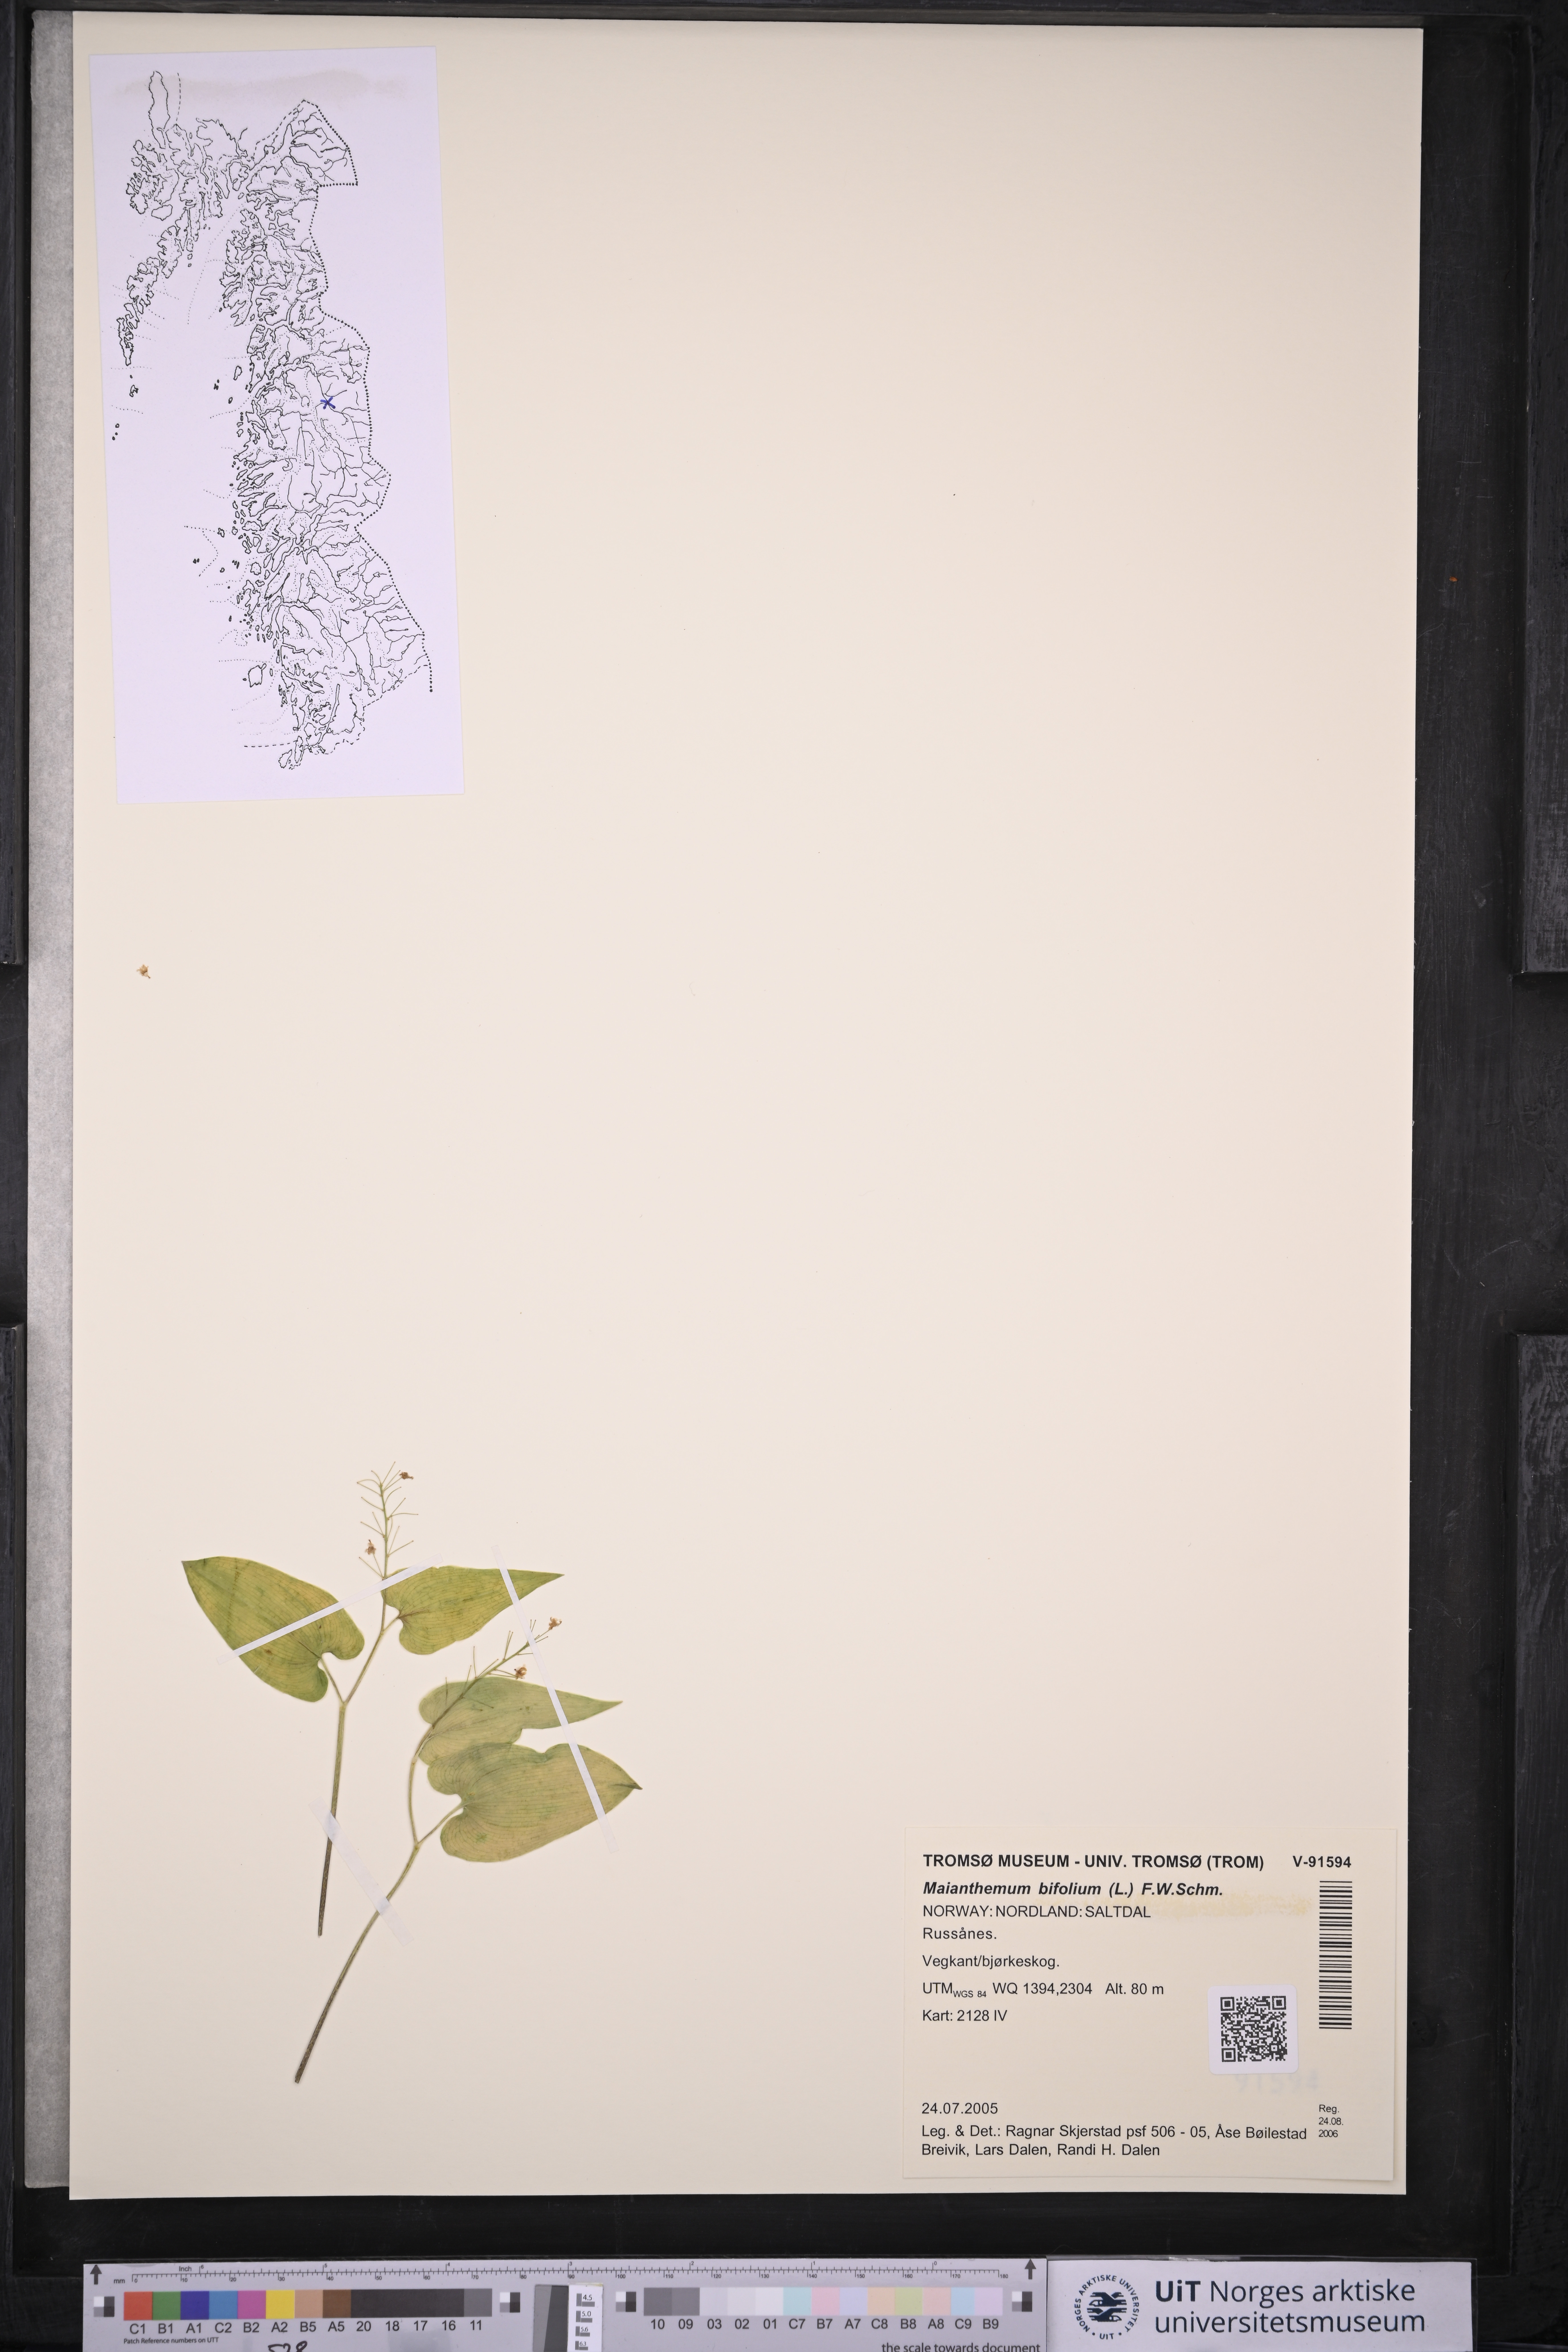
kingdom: Plantae
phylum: Tracheophyta
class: Liliopsida
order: Asparagales
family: Asparagaceae
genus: Maianthemum
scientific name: Maianthemum bifolium
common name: May lily
